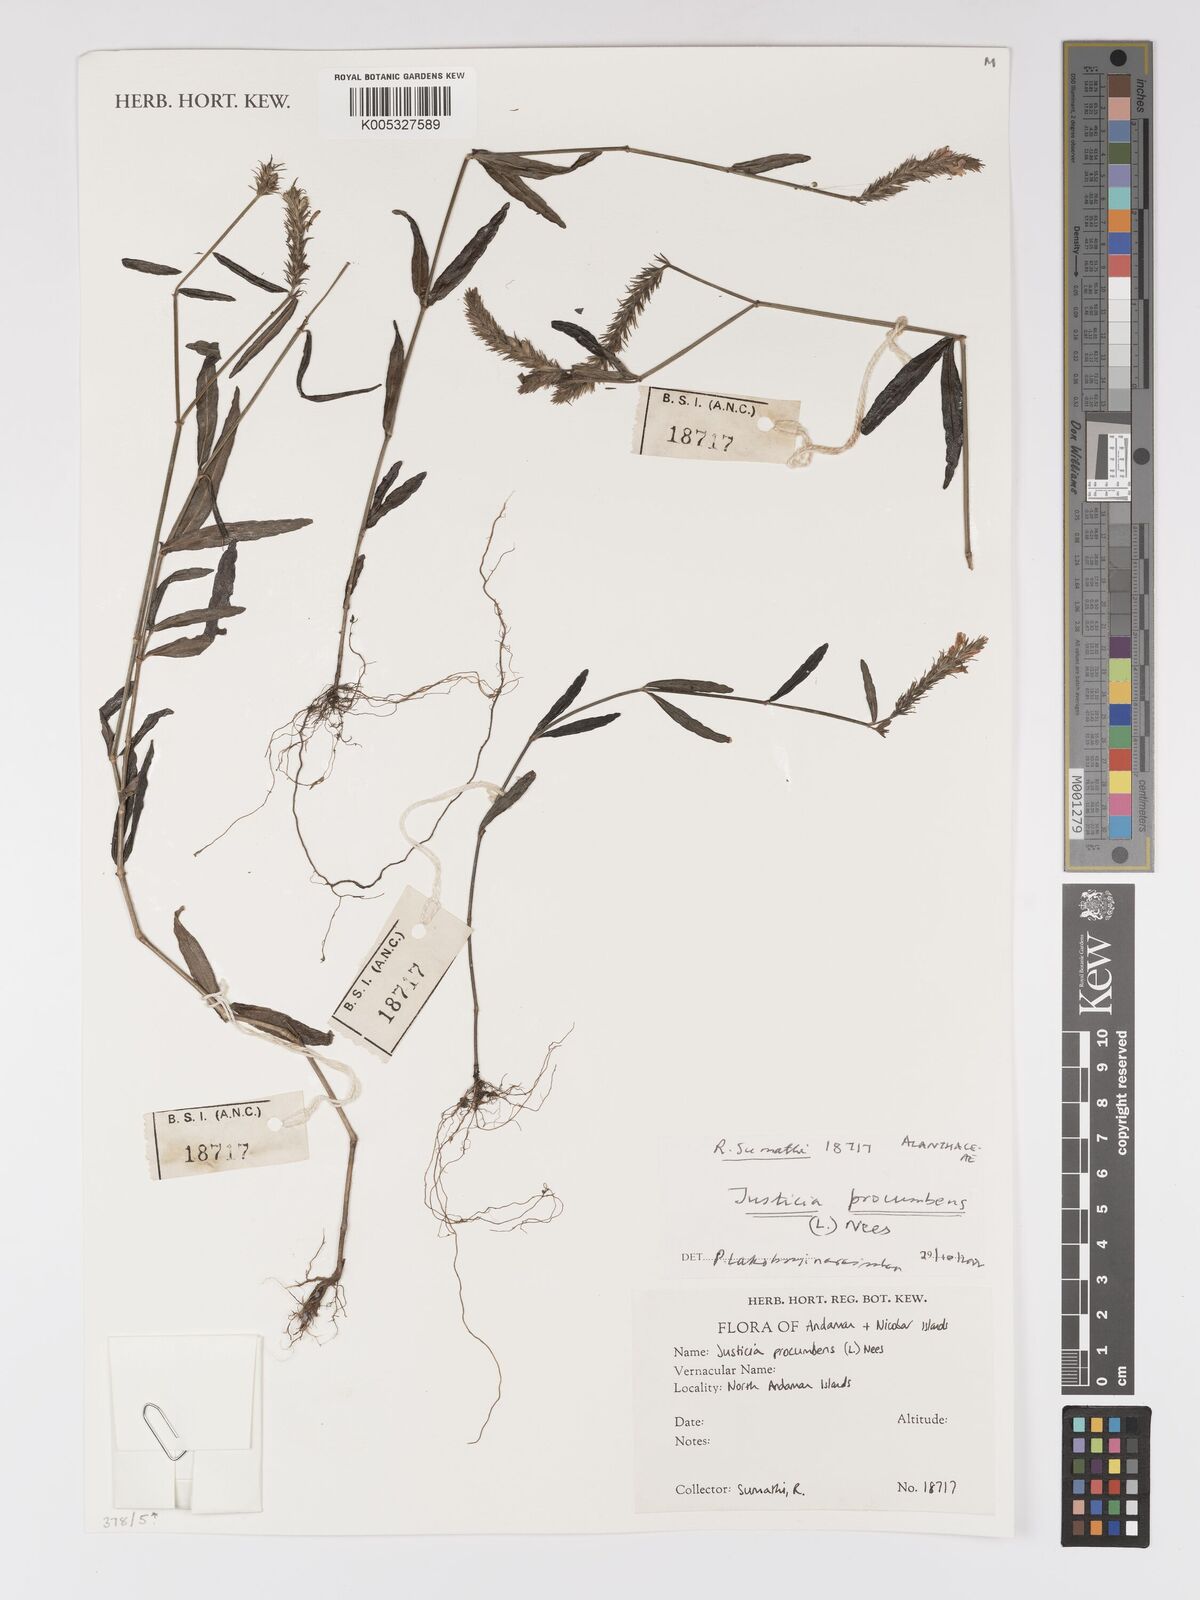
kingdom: Plantae
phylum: Tracheophyta
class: Magnoliopsida
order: Lamiales
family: Acanthaceae
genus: Rostellularia
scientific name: Rostellularia procumbens
